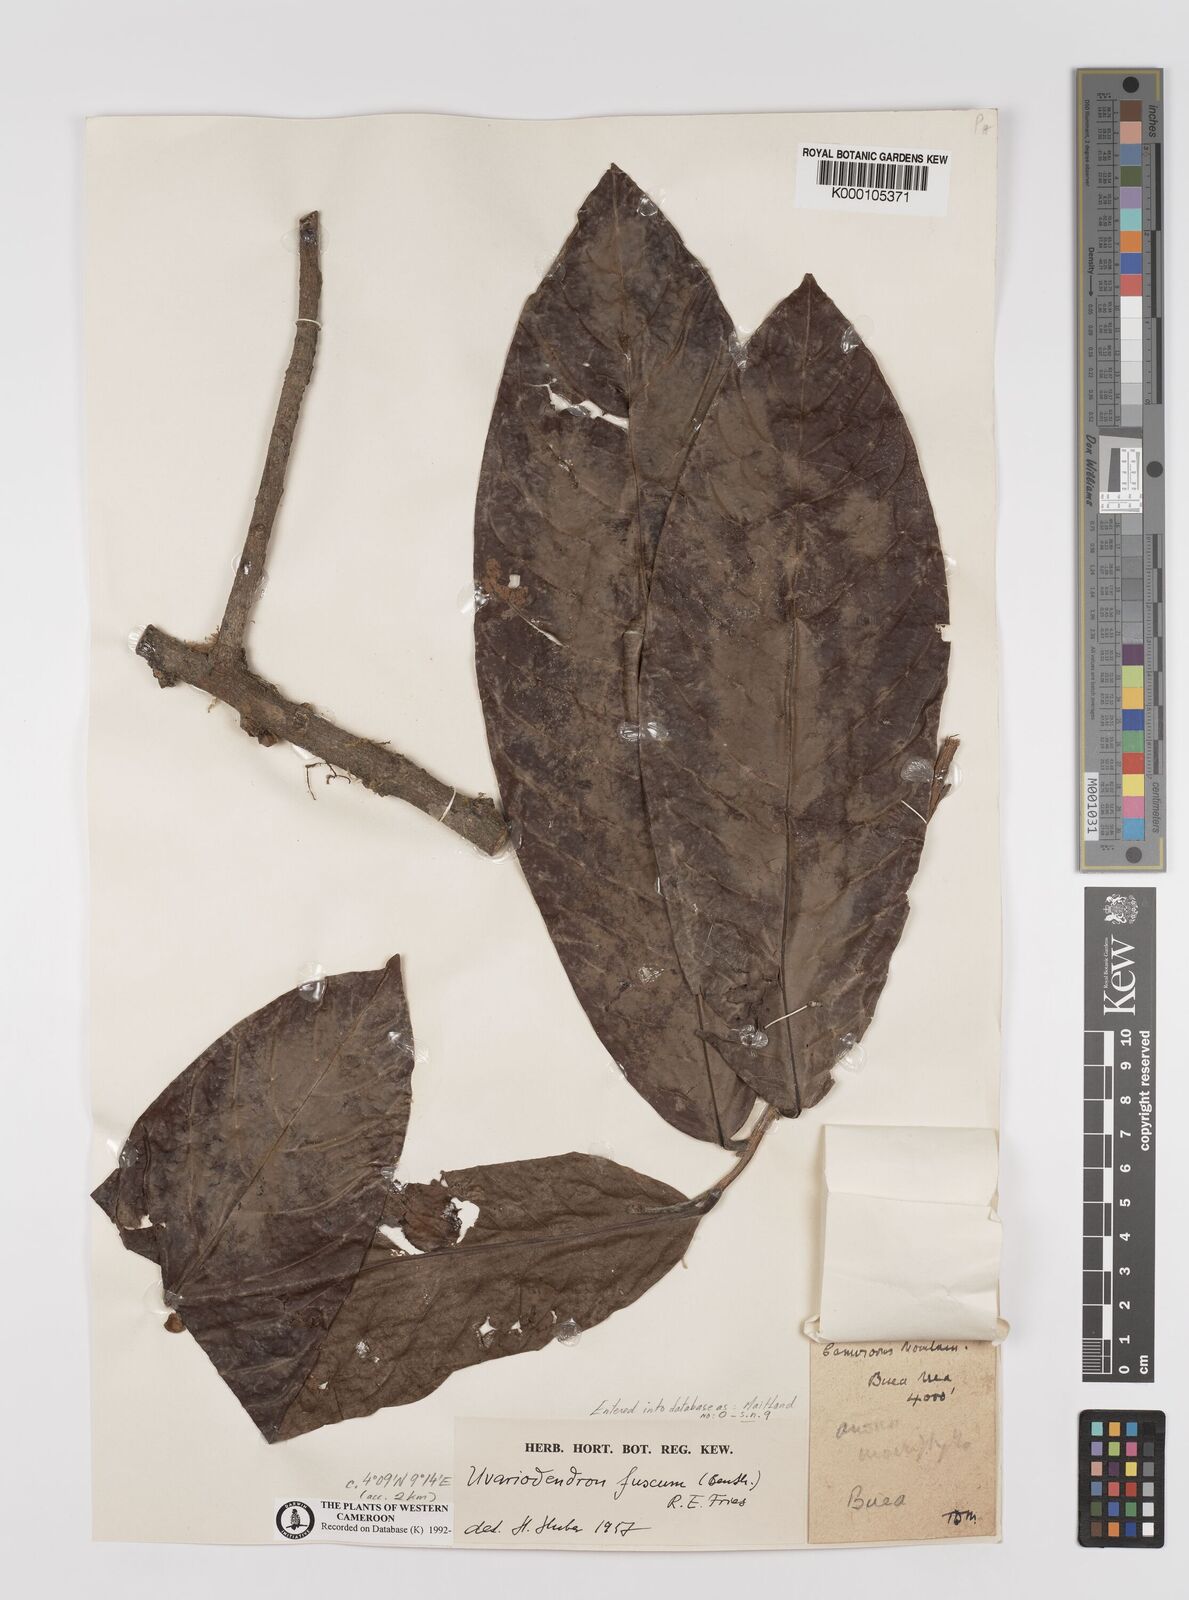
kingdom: Plantae
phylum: Tracheophyta
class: Magnoliopsida
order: Magnoliales
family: Annonaceae
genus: Uvariodendron
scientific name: Uvariodendron fuscum
